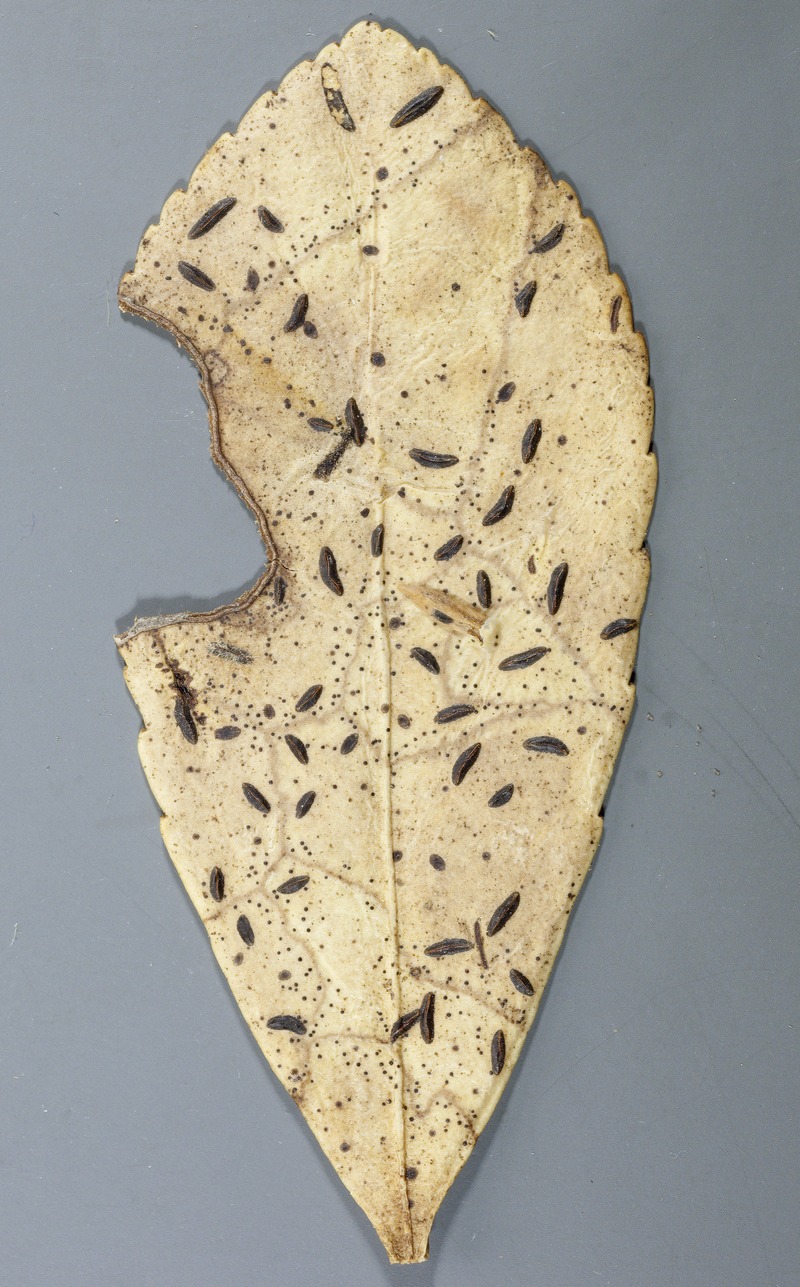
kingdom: Fungi
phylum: Ascomycota
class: Leotiomycetes
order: Rhytismatales
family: Rhytismataceae
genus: Hypoderma
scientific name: Hypoderma hederae
